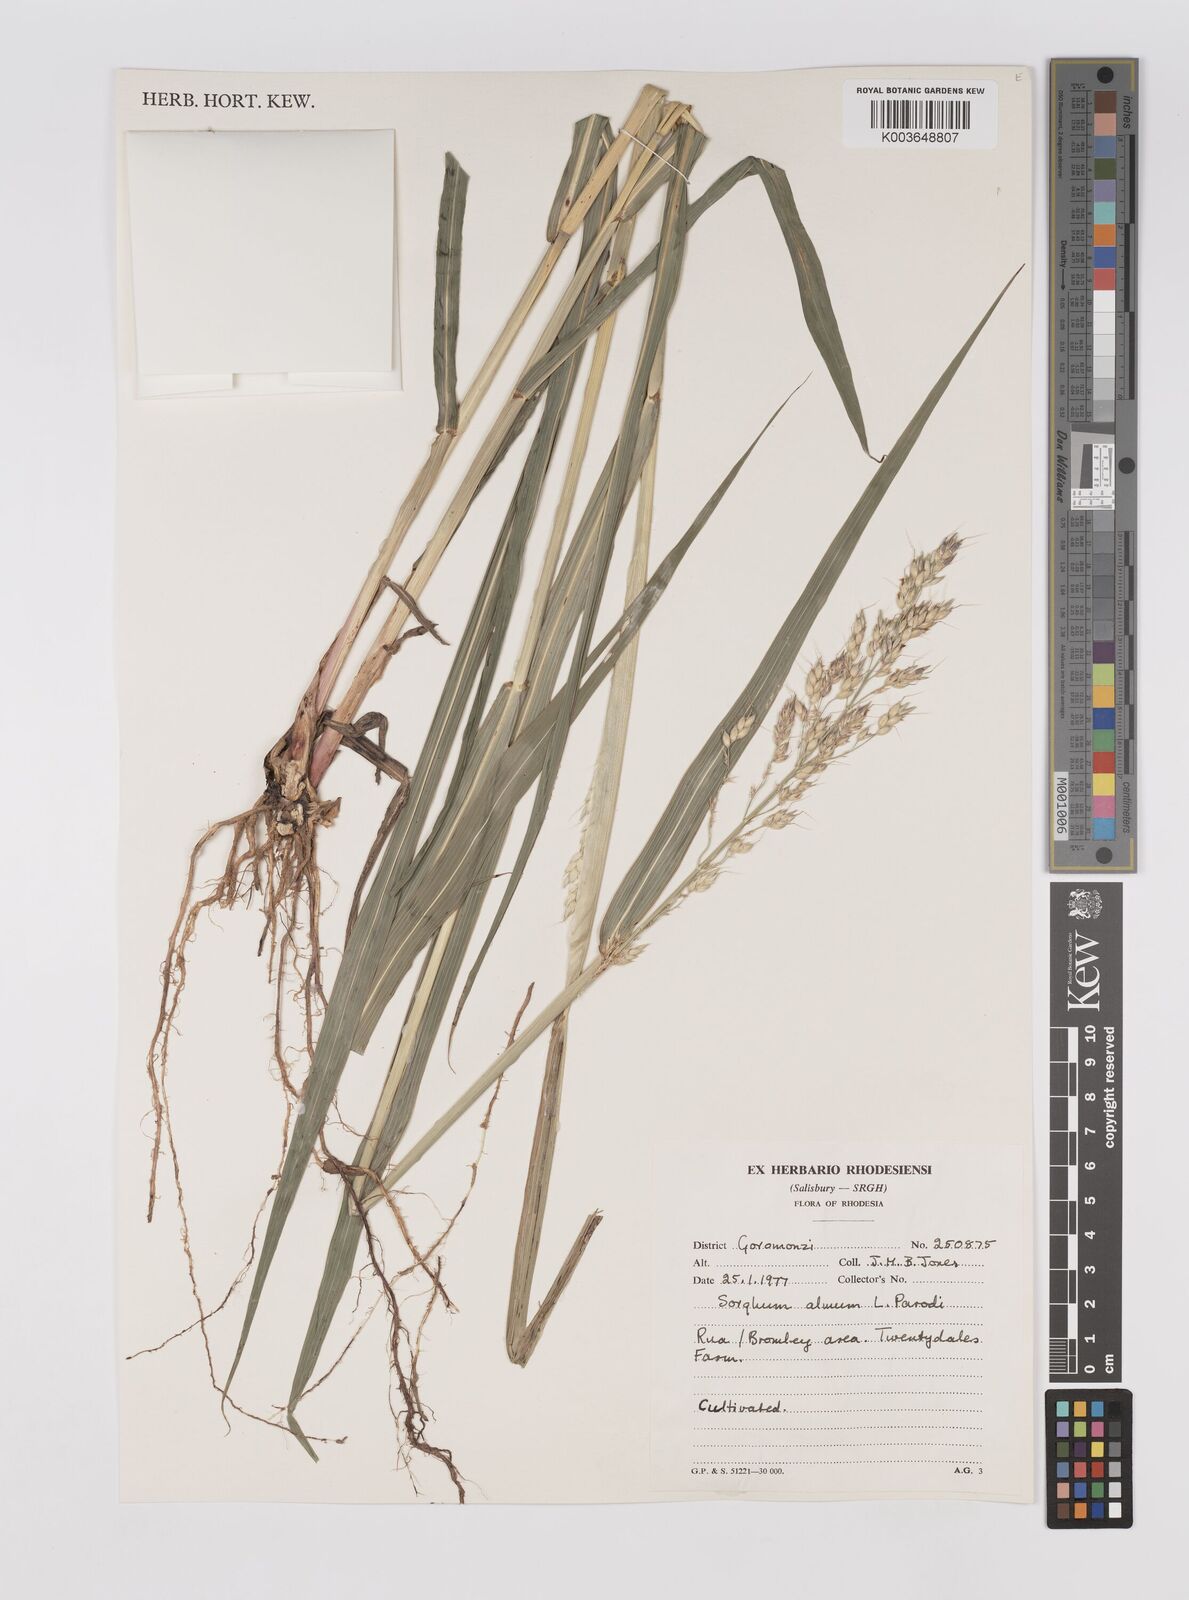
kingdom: Plantae
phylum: Tracheophyta
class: Liliopsida
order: Poales
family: Poaceae
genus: Cymbopogon
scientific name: Cymbopogon procerus
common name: Lemongrass
